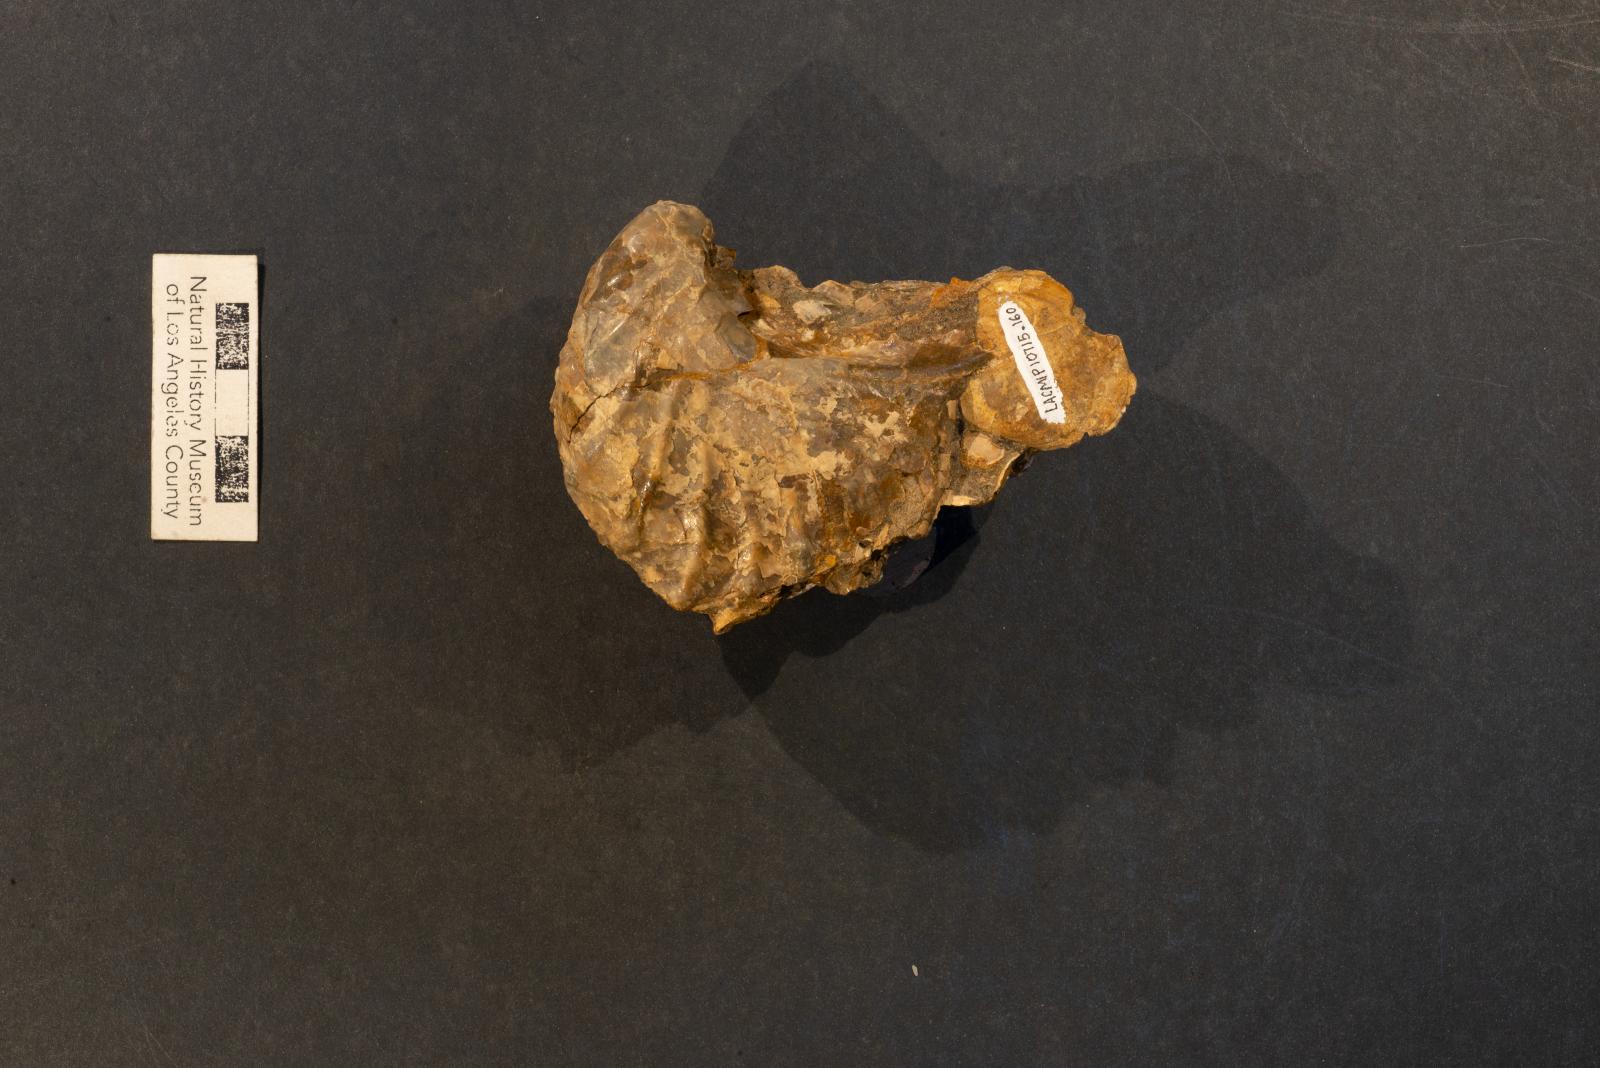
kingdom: Animalia
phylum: Mollusca
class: Bivalvia
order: Trigoniida
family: Pterotrigoniidae
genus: Notoscabrotrigonia
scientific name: Notoscabrotrigonia evansana
